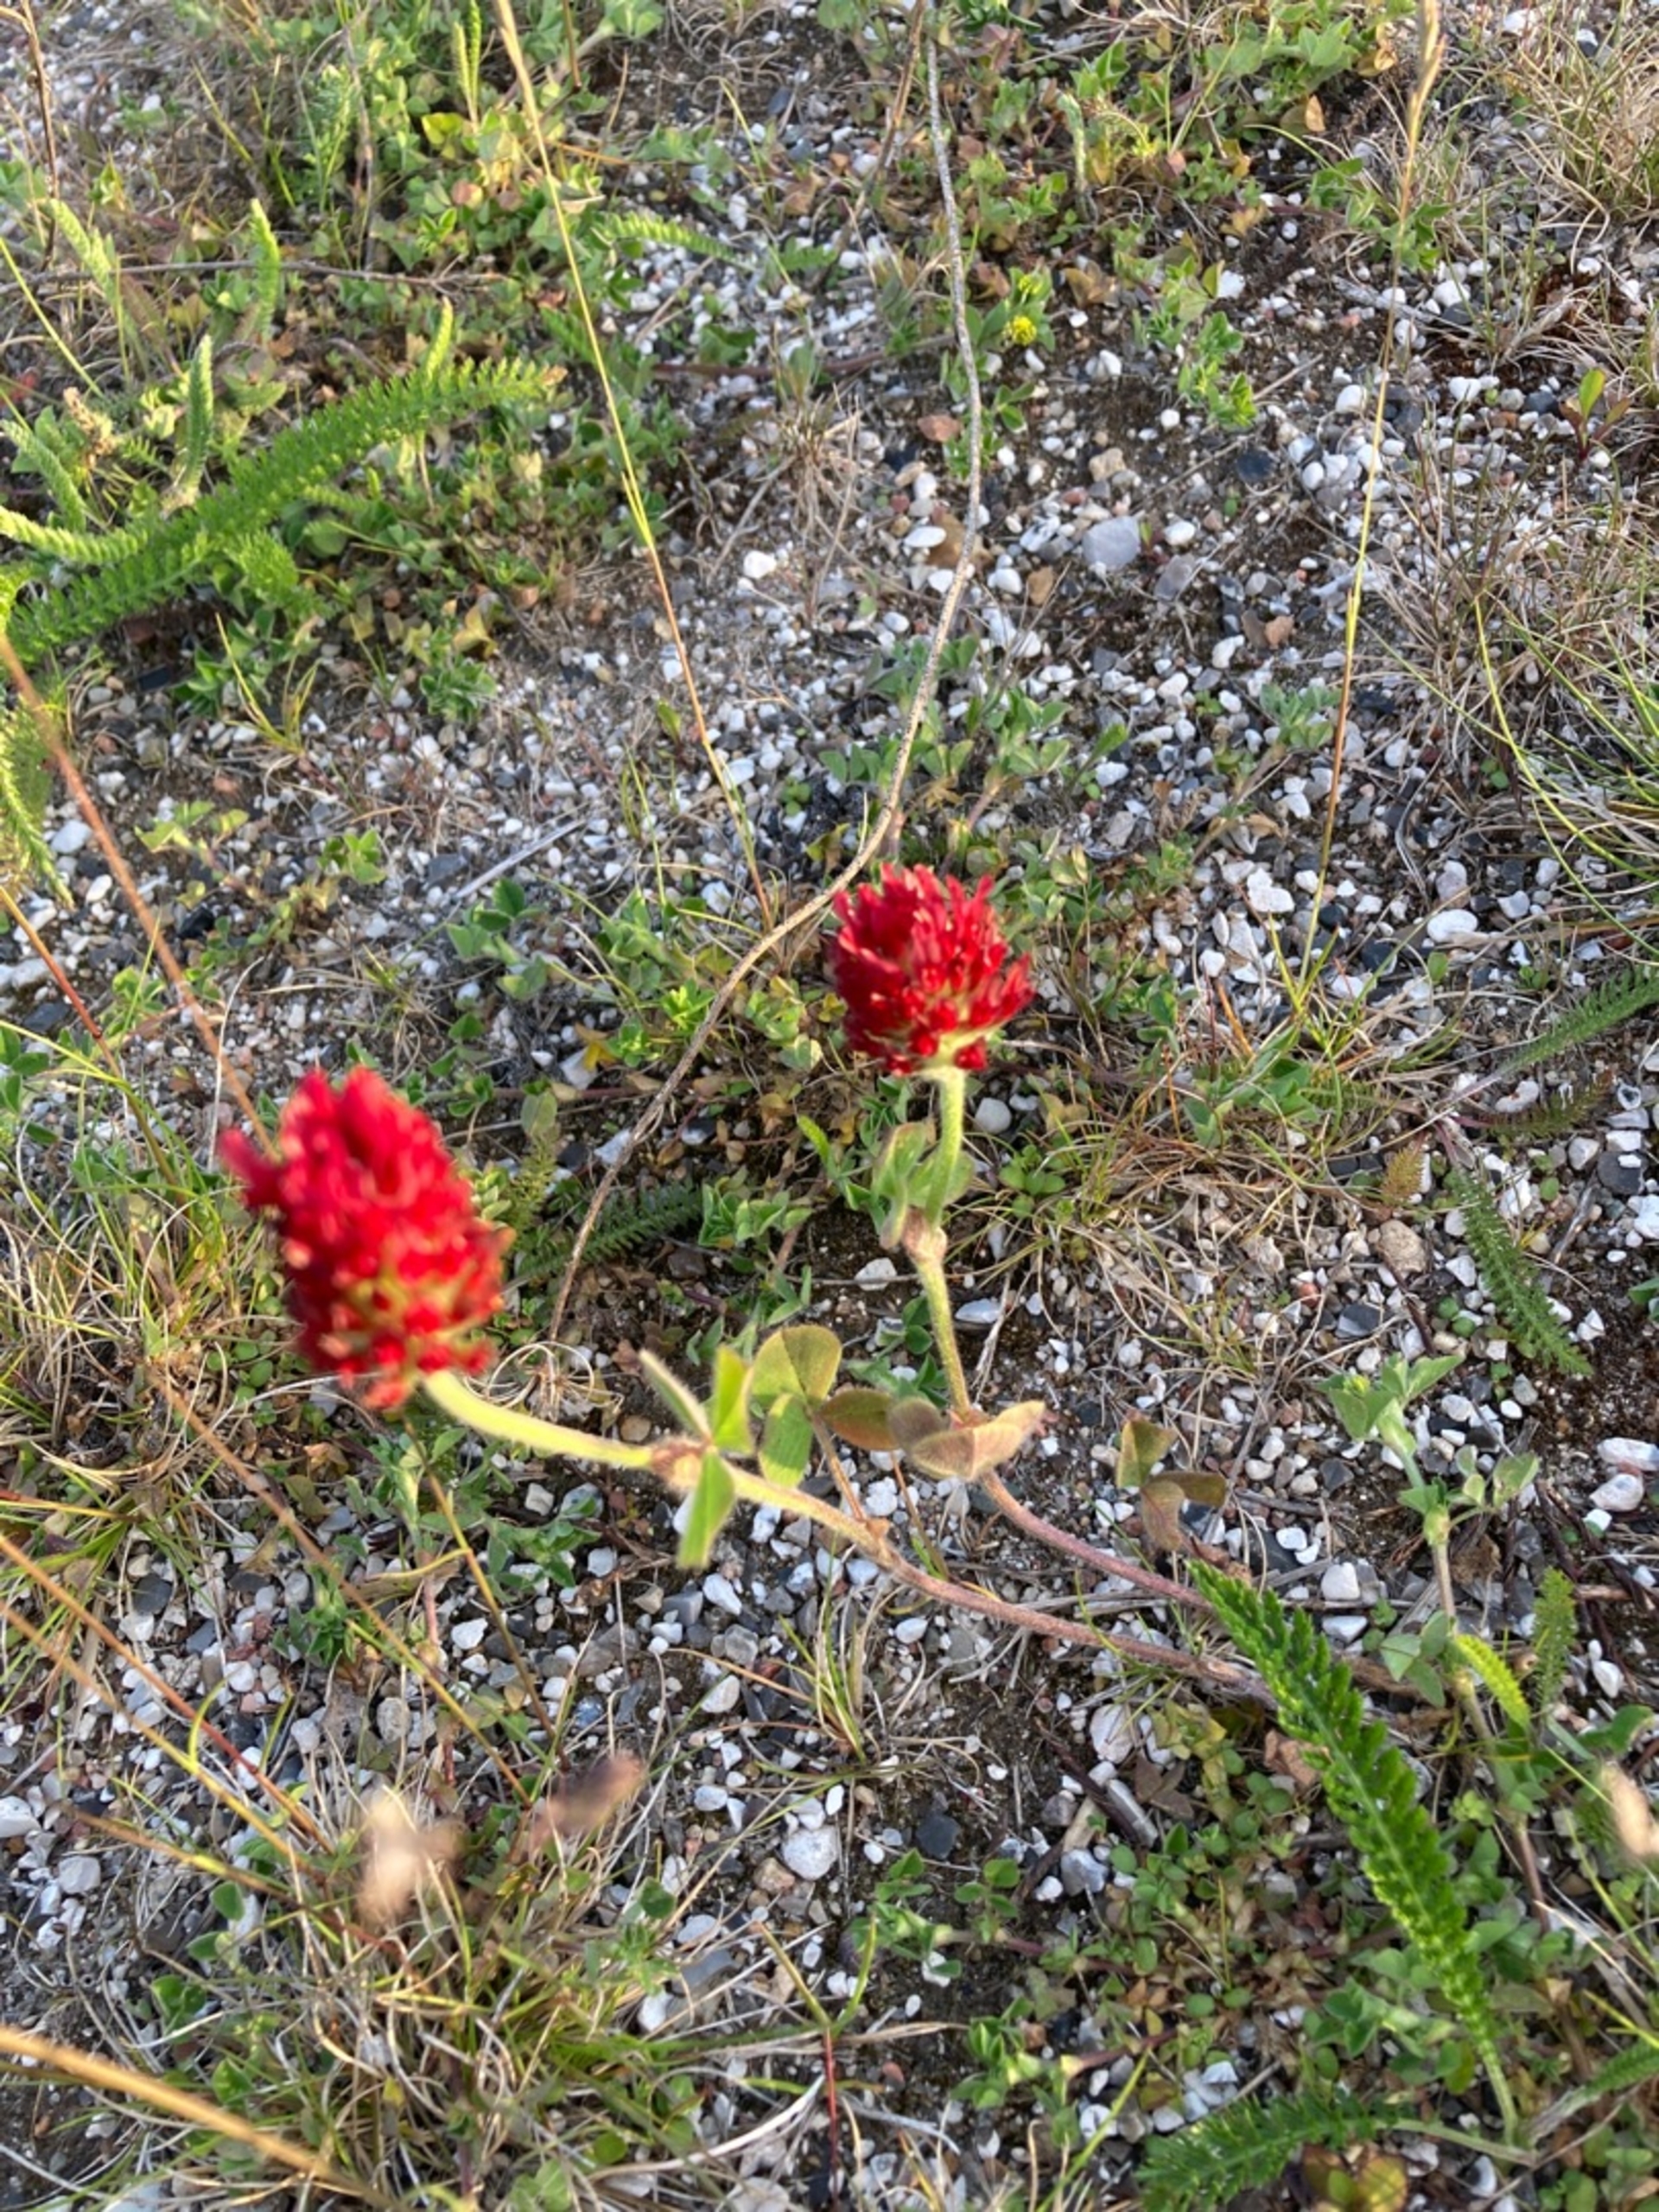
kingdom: Plantae
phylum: Tracheophyta
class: Magnoliopsida
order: Fabales
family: Fabaceae
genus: Trifolium
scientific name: Trifolium incarnatum
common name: Blod-kløver
